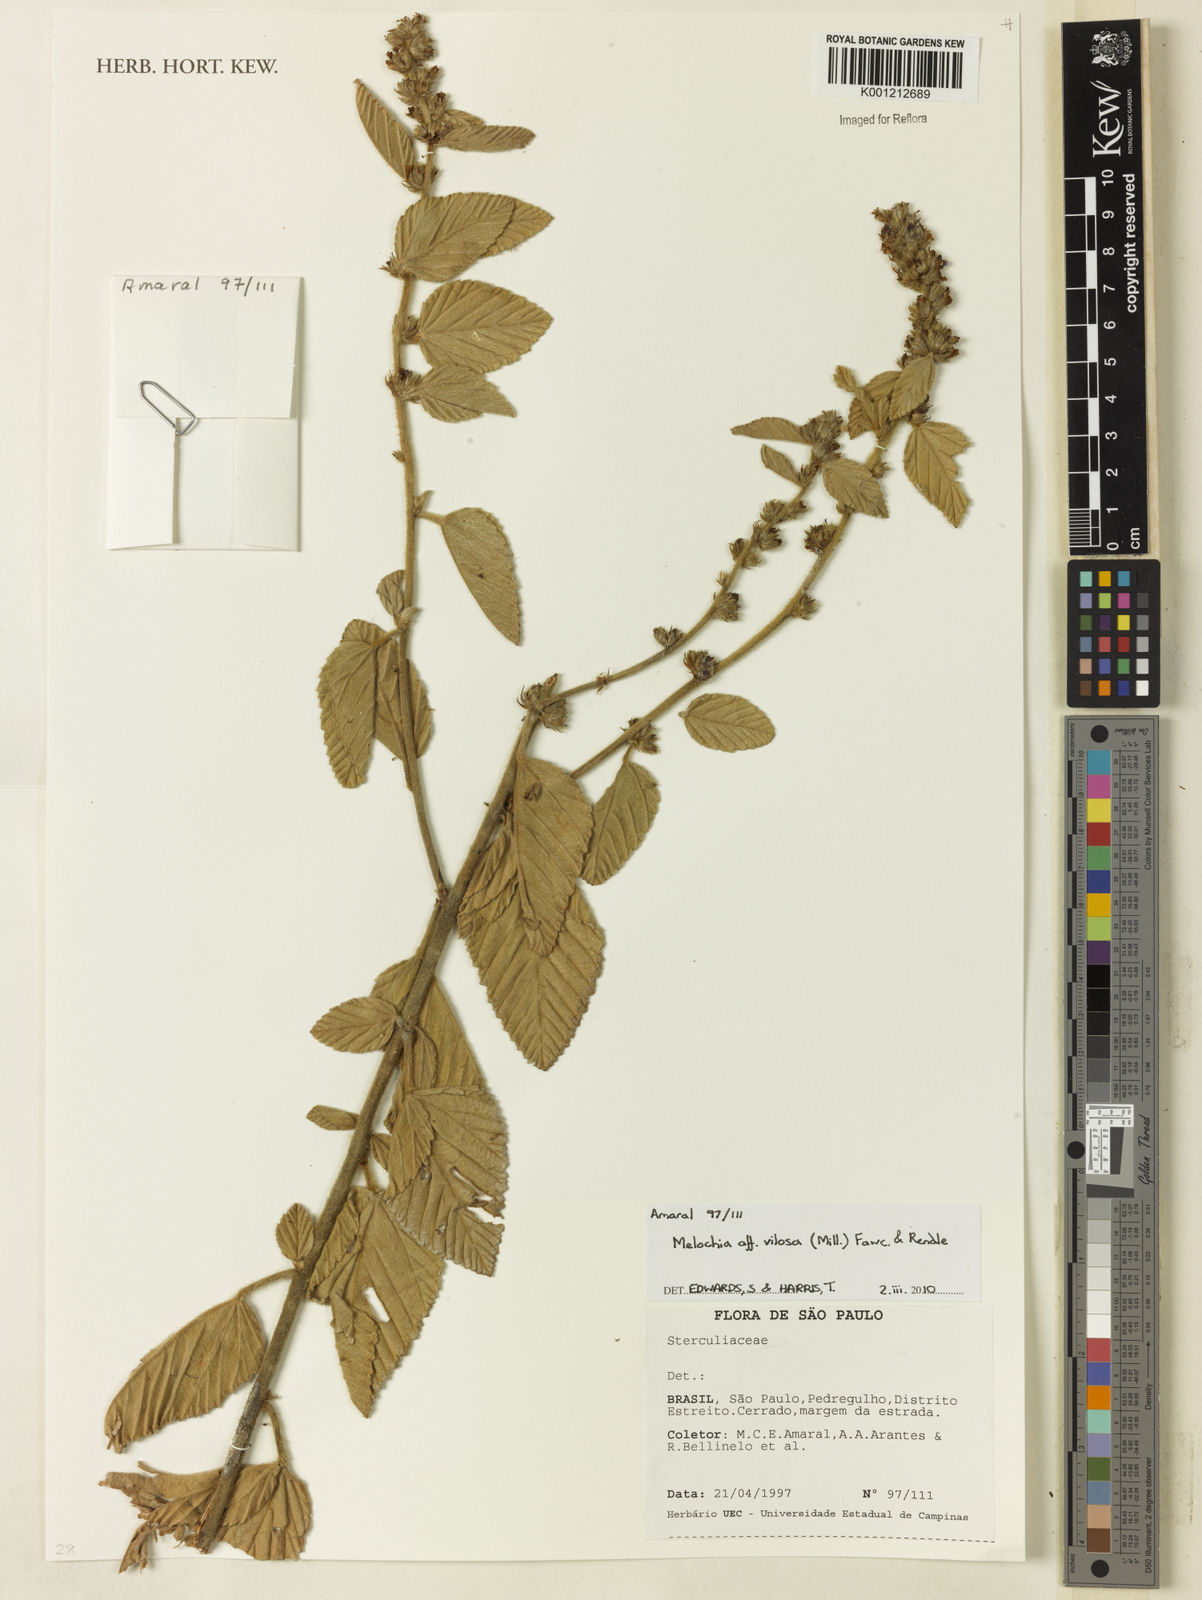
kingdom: Plantae
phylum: Tracheophyta
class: Magnoliopsida
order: Malvales
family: Malvaceae
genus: Melochia
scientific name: Melochia spicata
